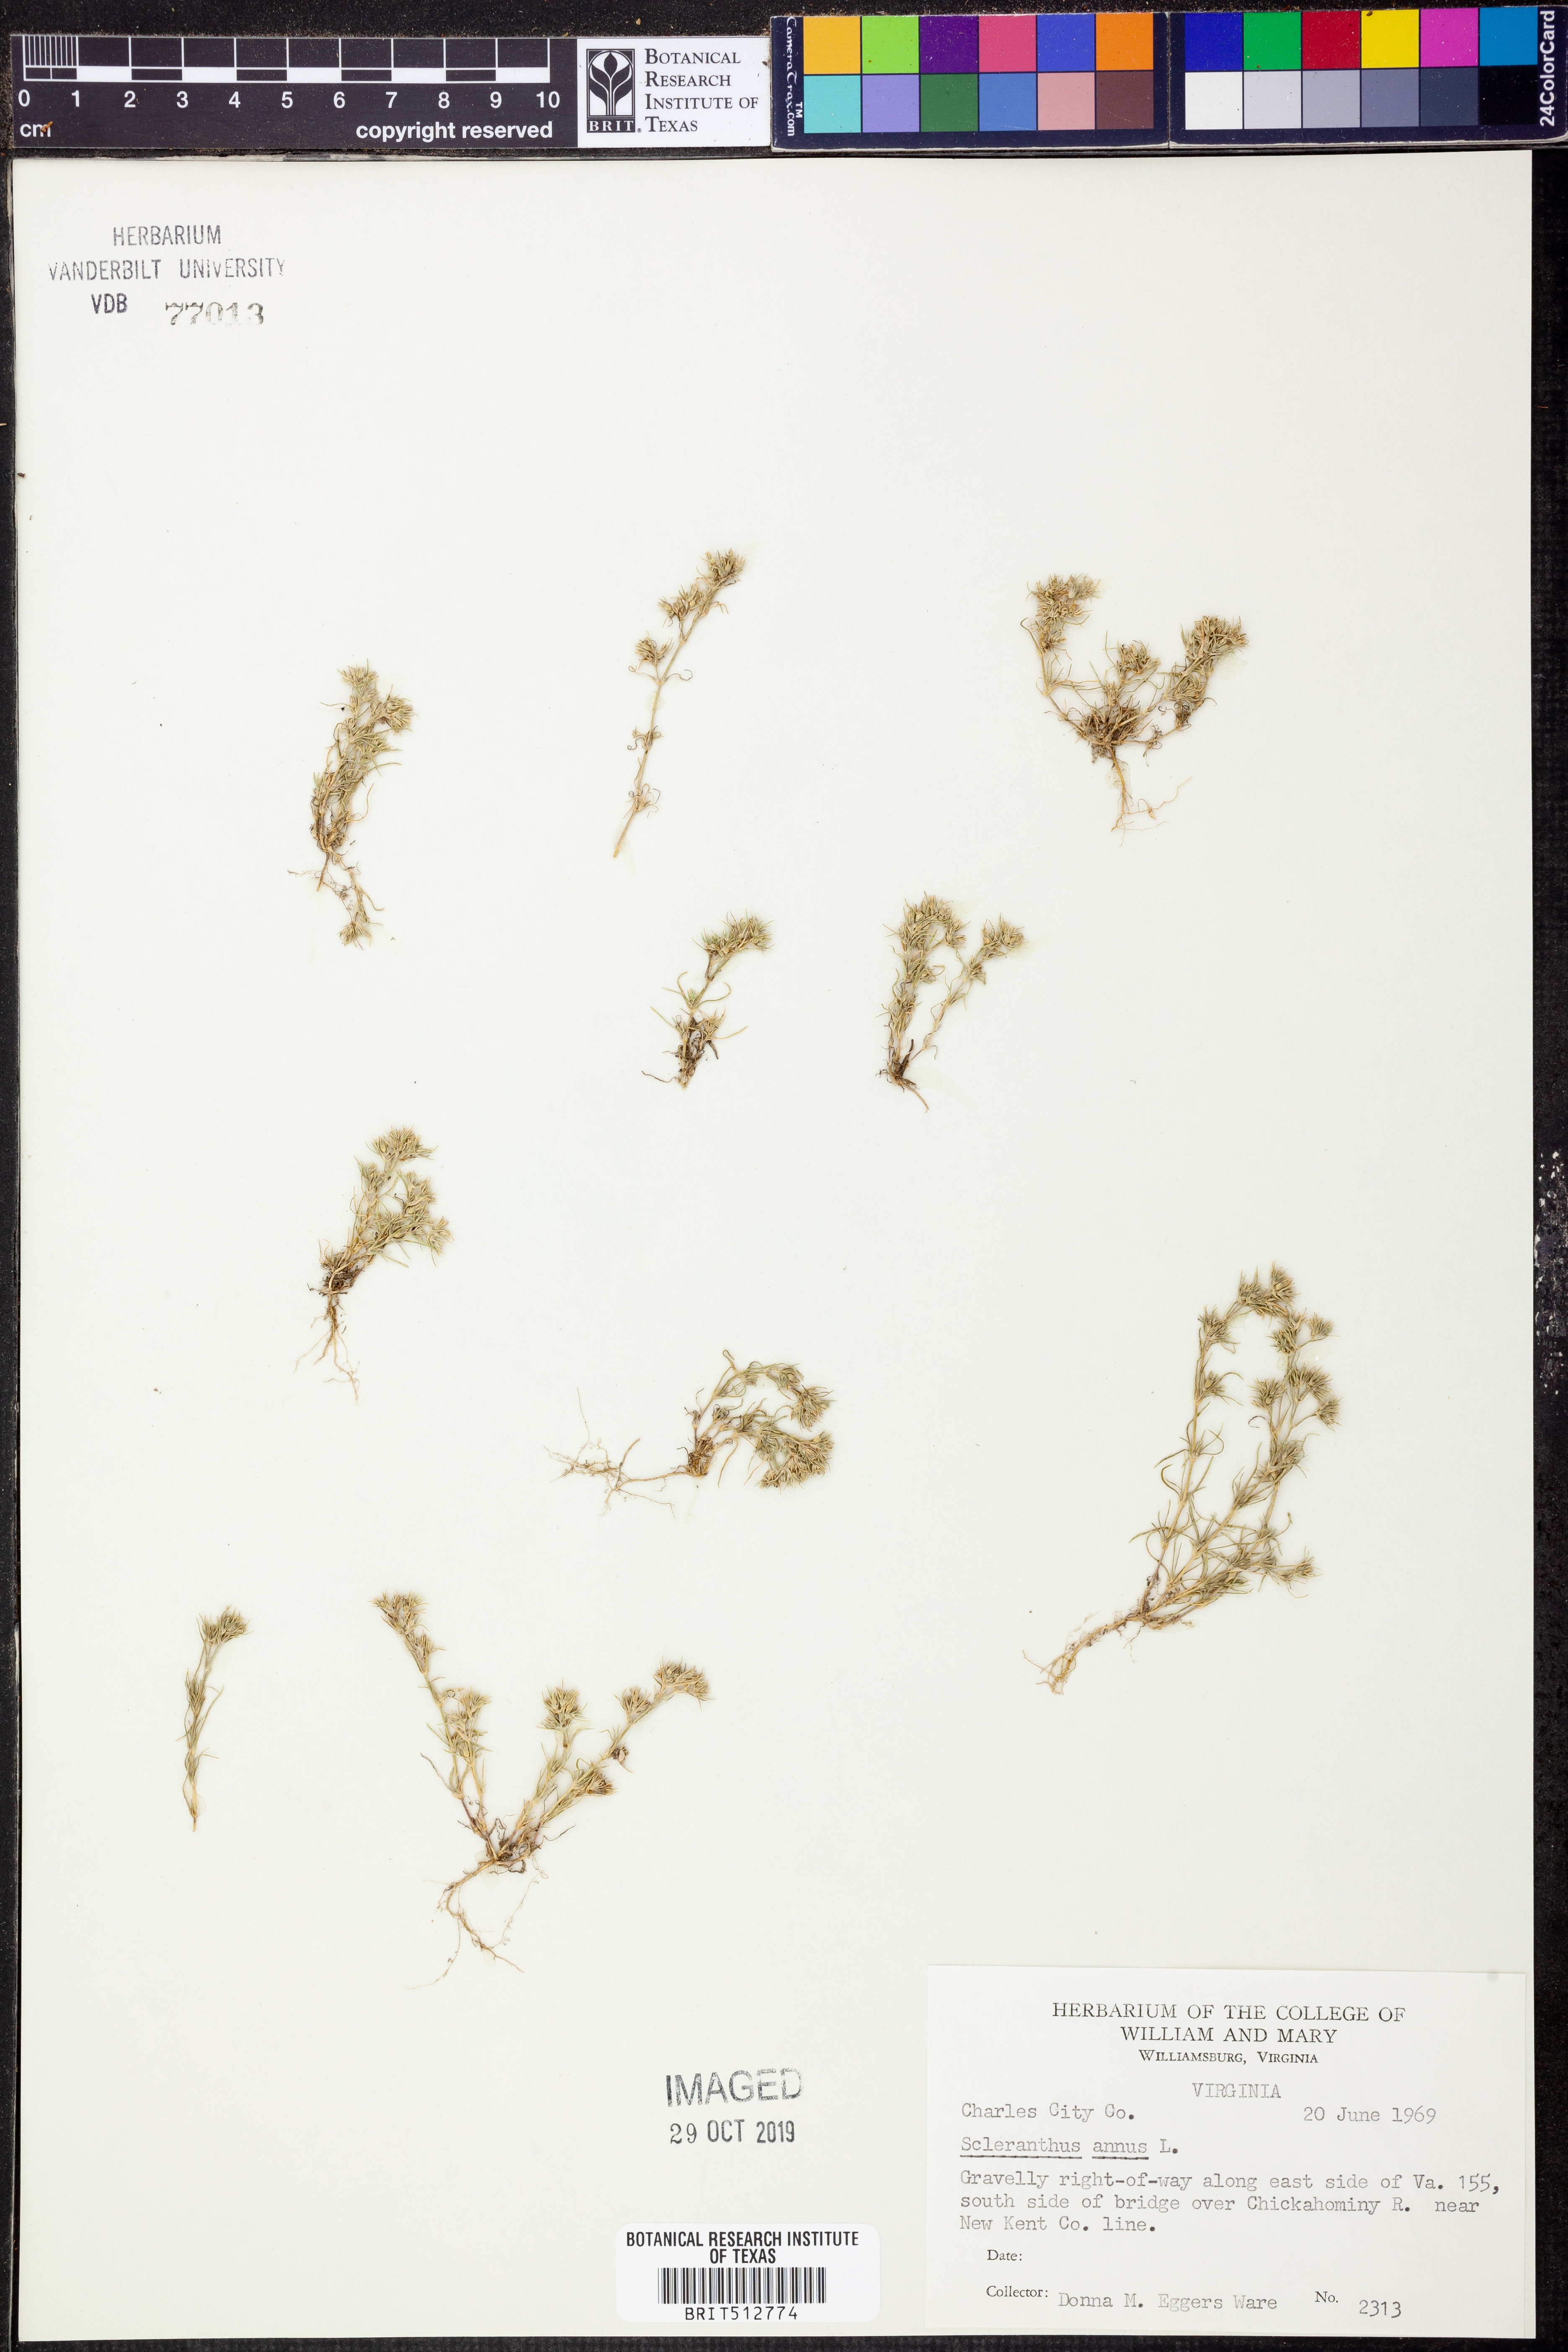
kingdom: Plantae
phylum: Tracheophyta
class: Magnoliopsida
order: Caryophyllales
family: Caryophyllaceae
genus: Scleranthus
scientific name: Scleranthus annuus
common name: Annual knawel
